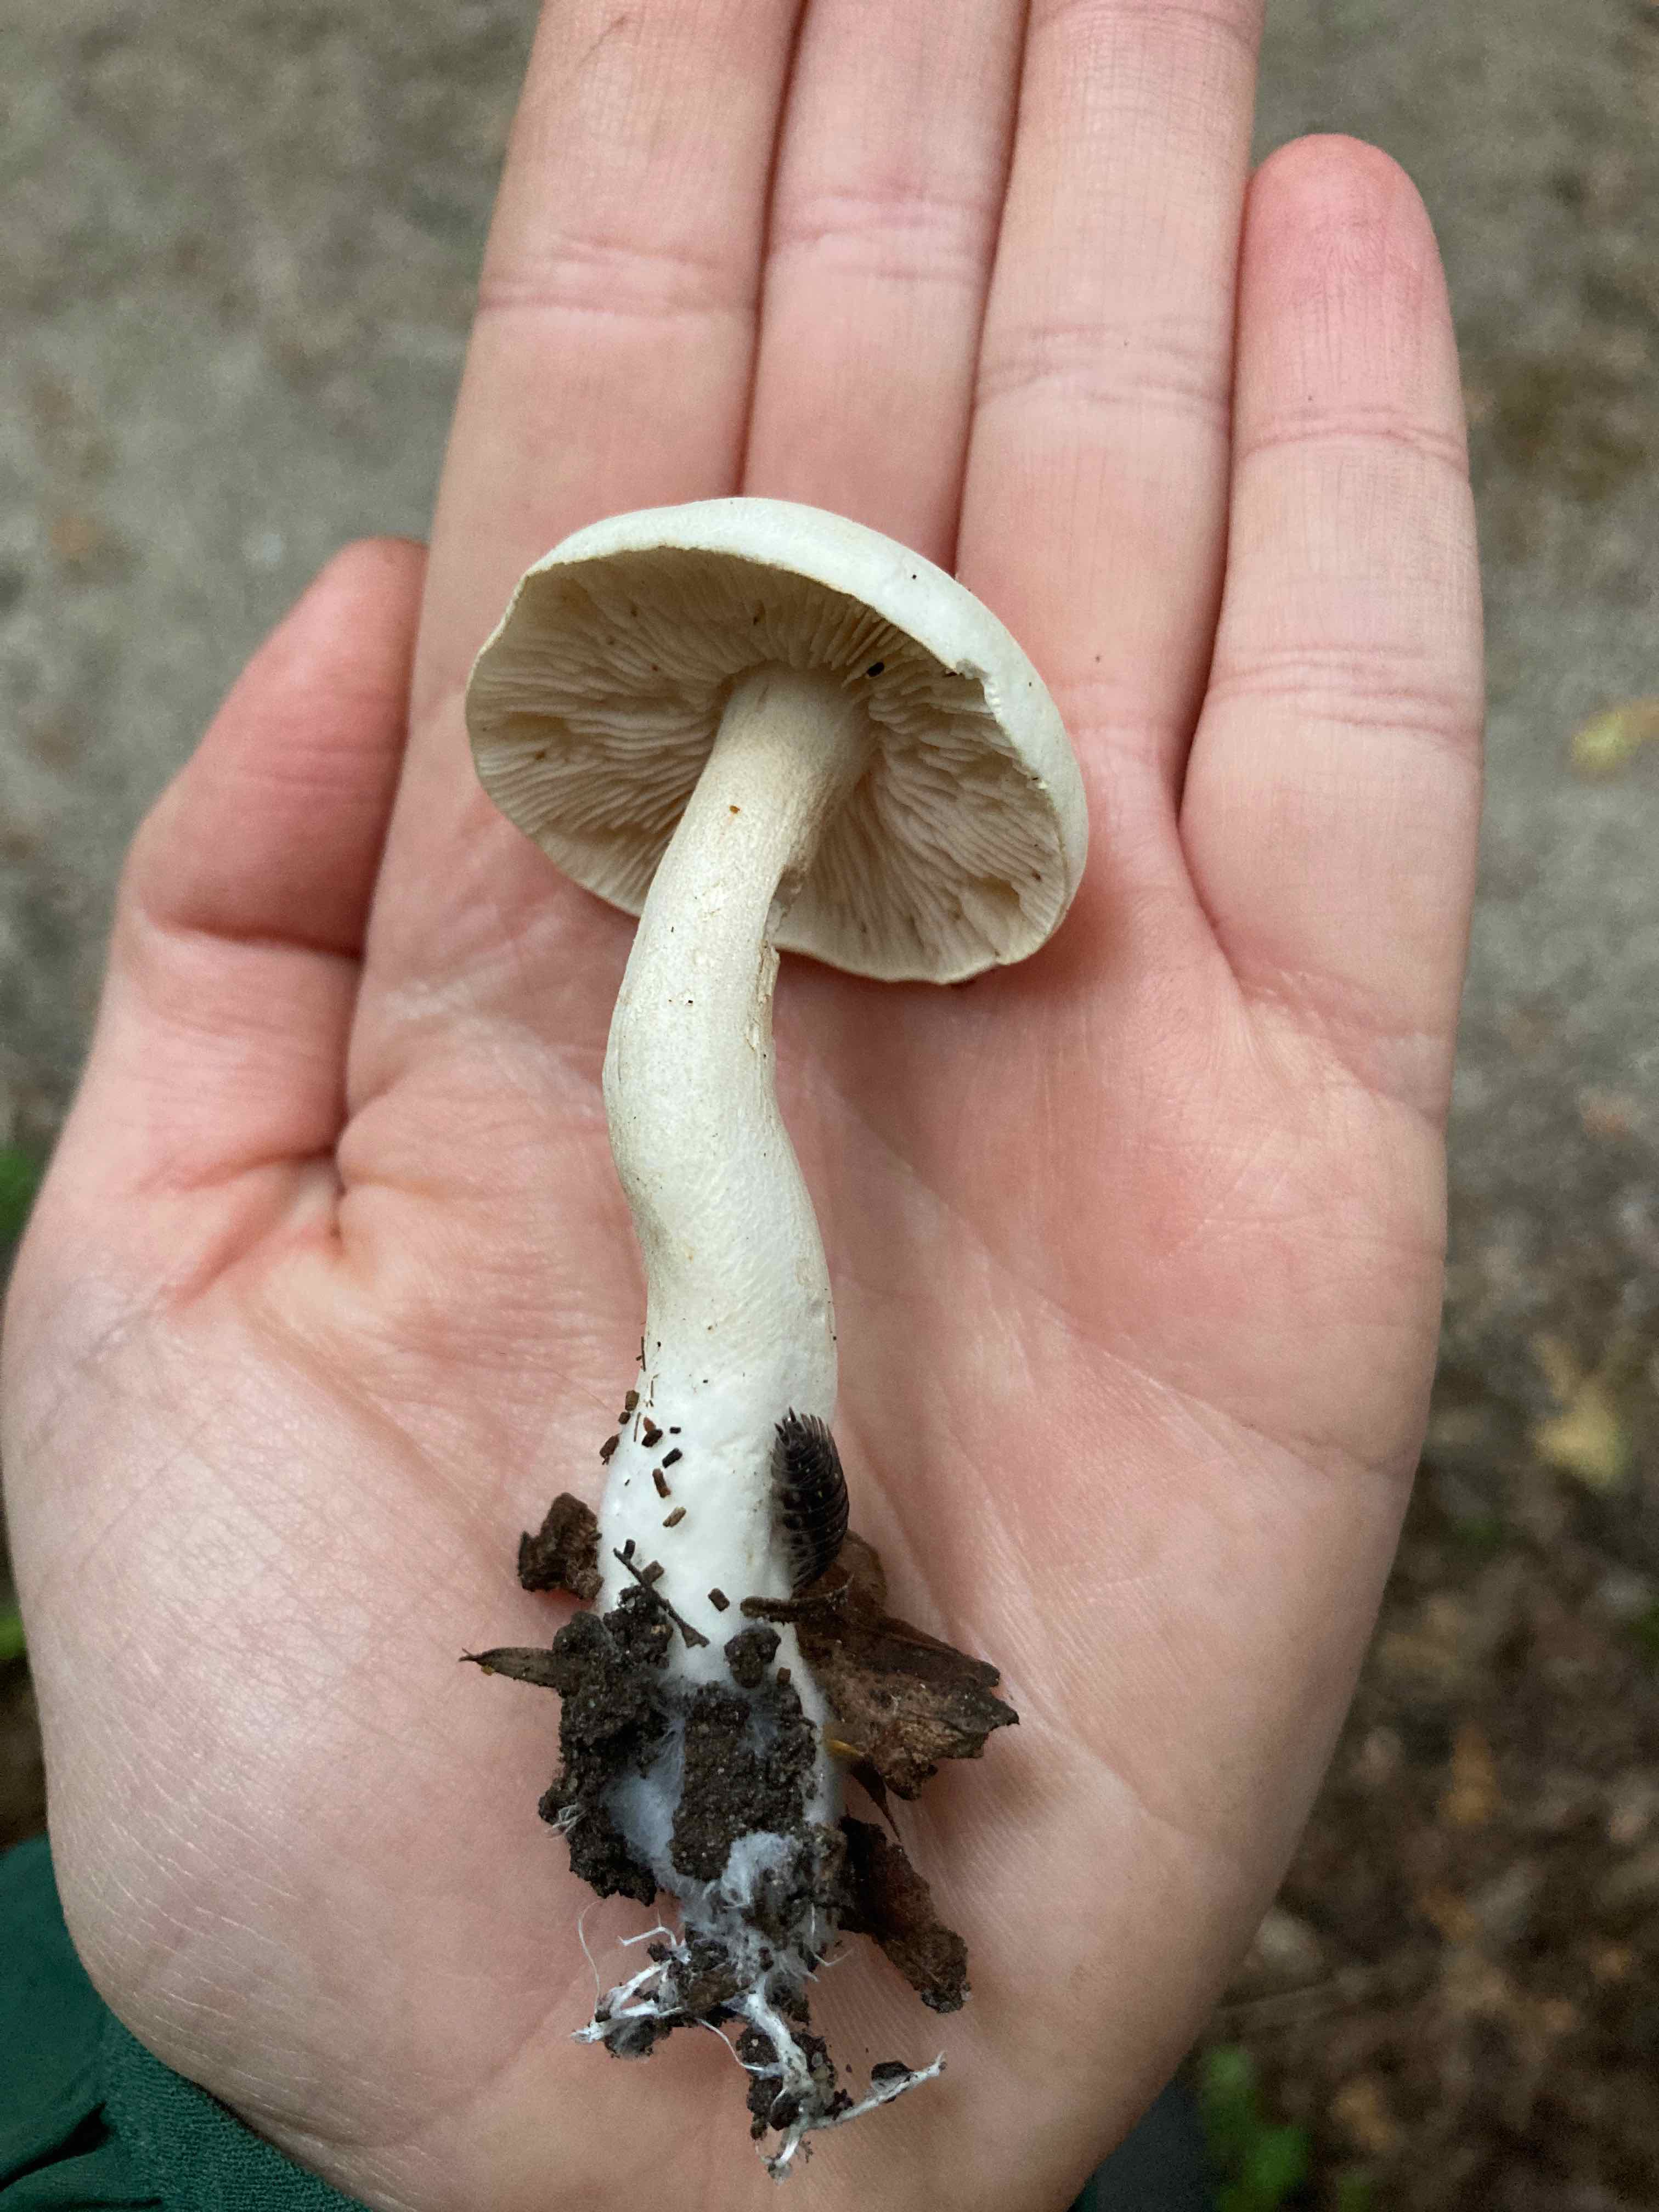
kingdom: Fungi
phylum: Basidiomycota
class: Agaricomycetes
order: Agaricales
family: Tricholomataceae
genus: Tricholoma
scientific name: Tricholoma
